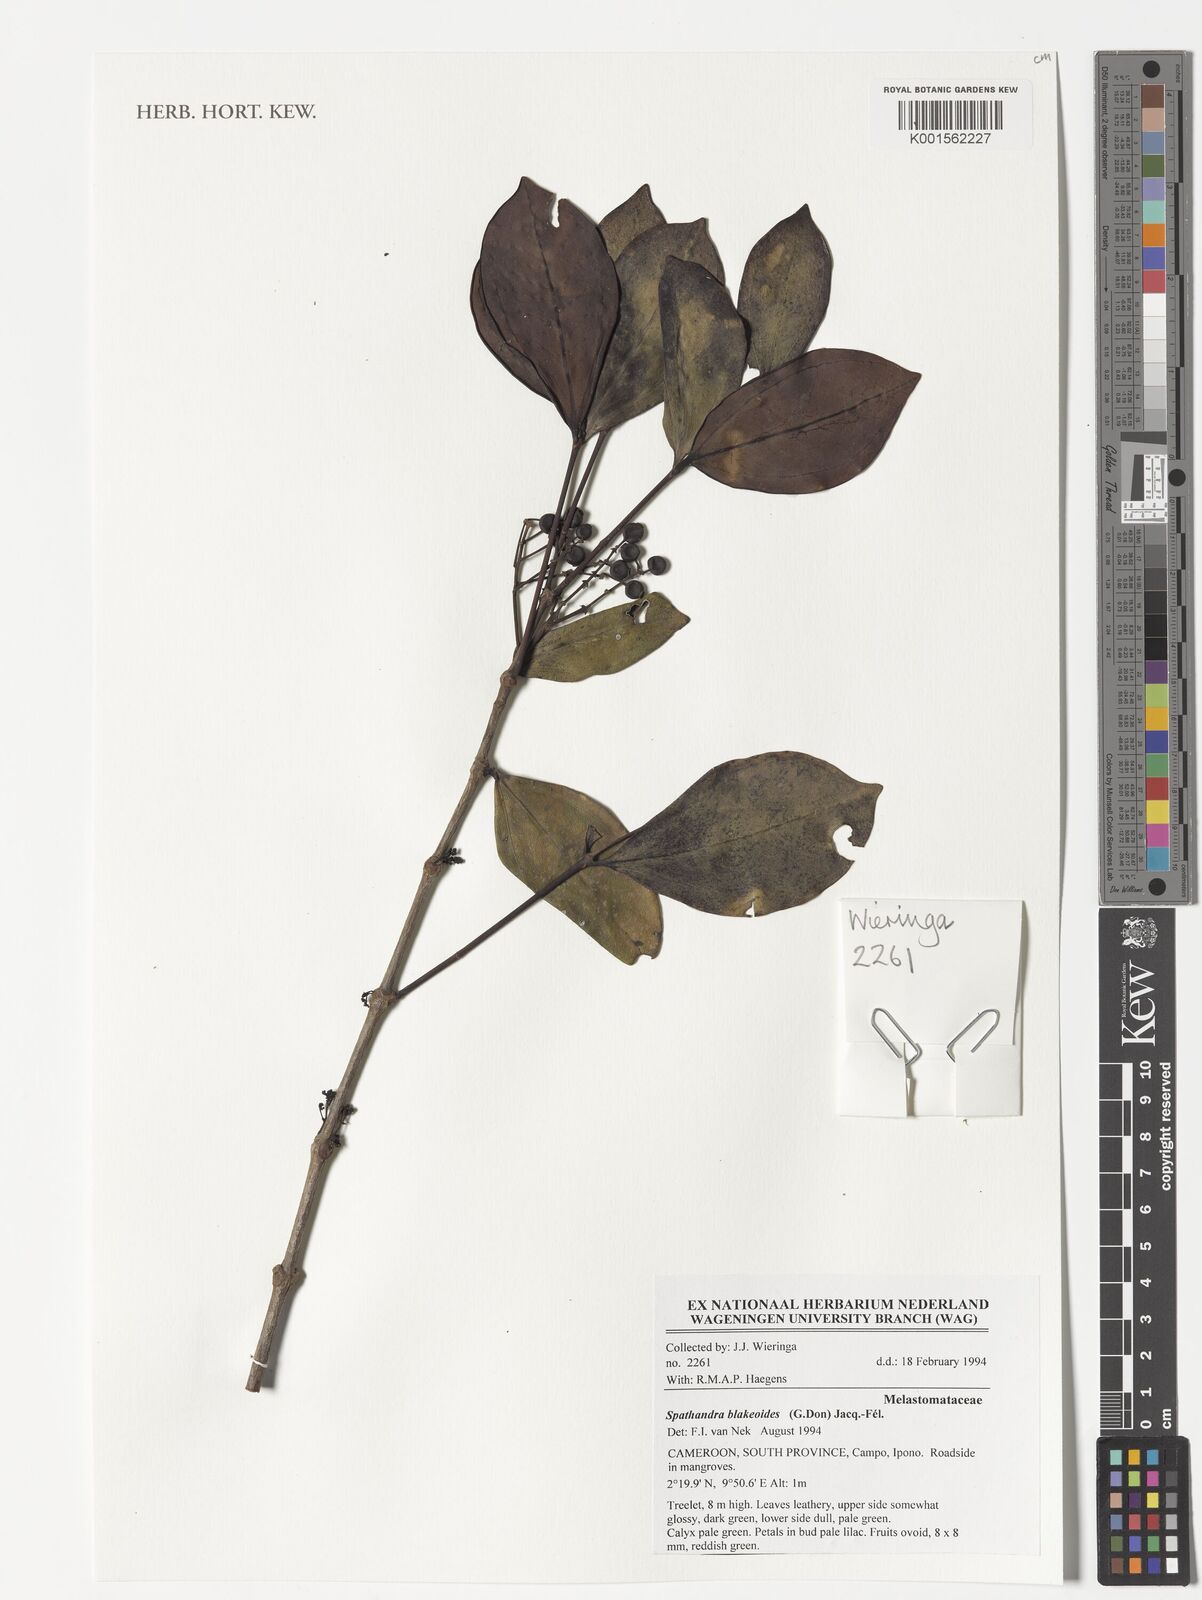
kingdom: Plantae
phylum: Tracheophyta
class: Magnoliopsida
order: Myrtales
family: Melastomataceae
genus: Spathandra
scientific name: Spathandra blakeoides
